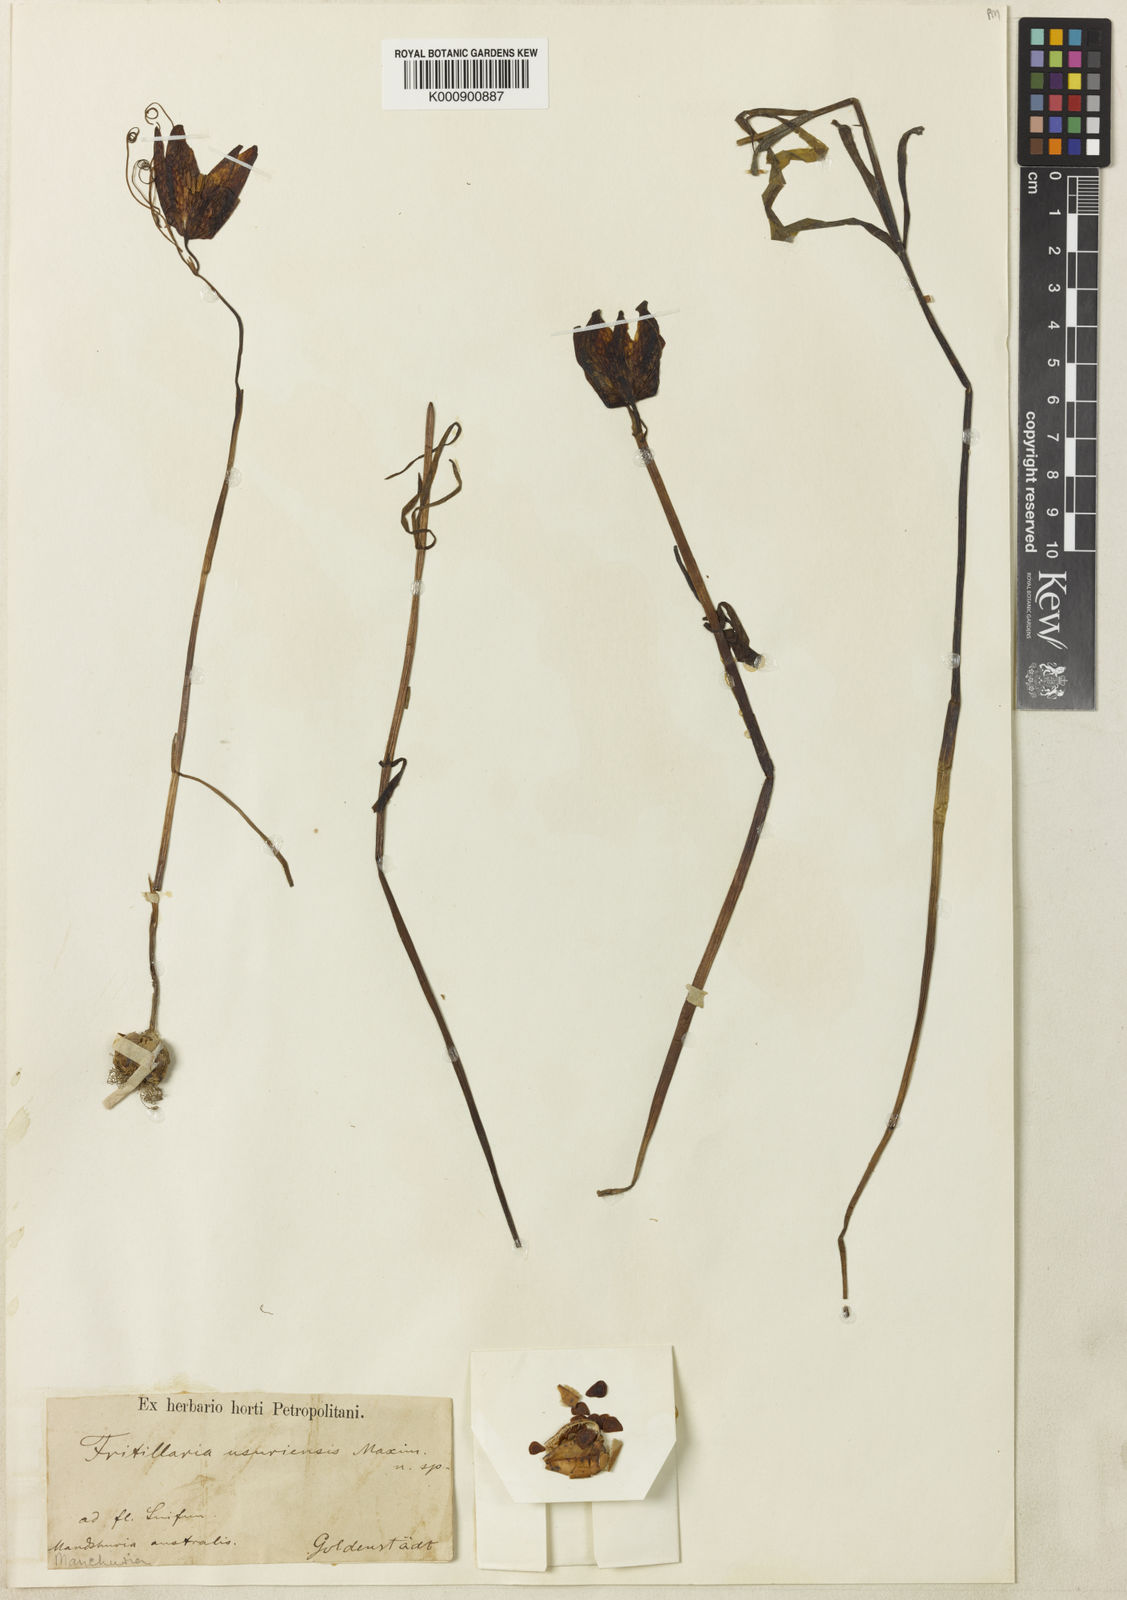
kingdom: Plantae
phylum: Tracheophyta
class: Liliopsida
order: Liliales
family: Liliaceae
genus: Fritillaria
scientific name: Fritillaria usuriensis
